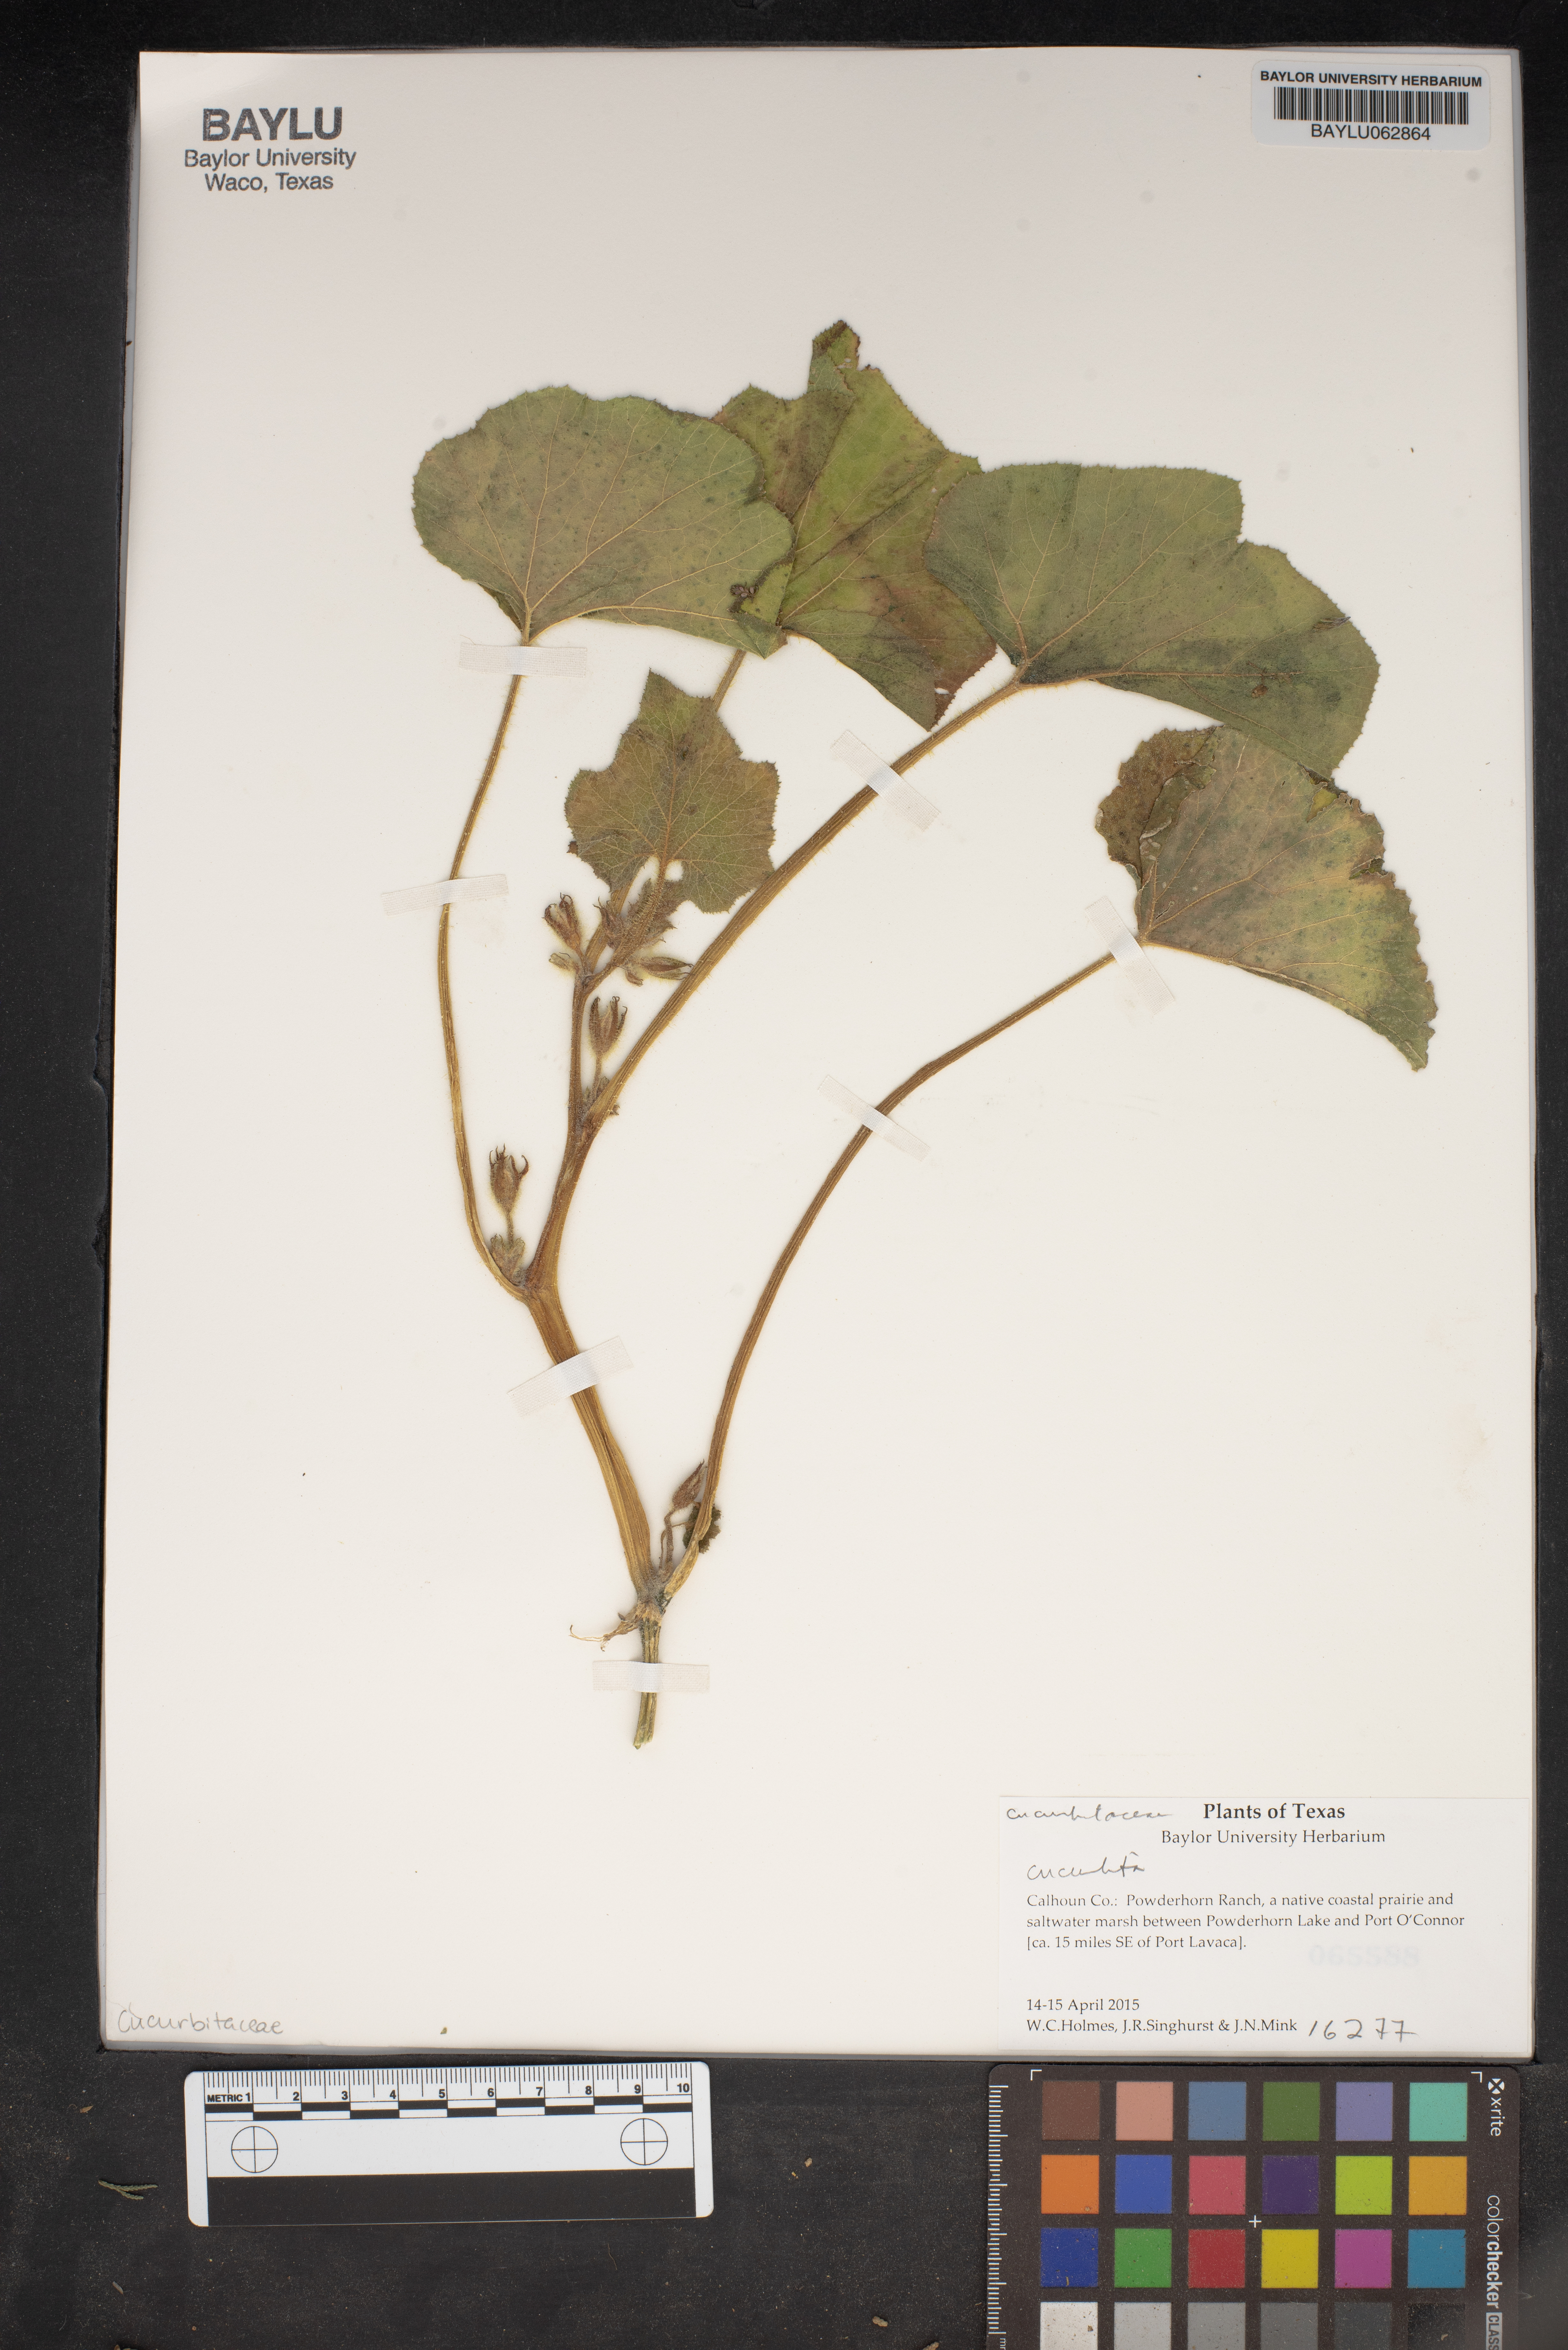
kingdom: Plantae
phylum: Tracheophyta
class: Magnoliopsida
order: Cucurbitales
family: Cucurbitaceae
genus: Cucurbita
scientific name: Cucurbita
